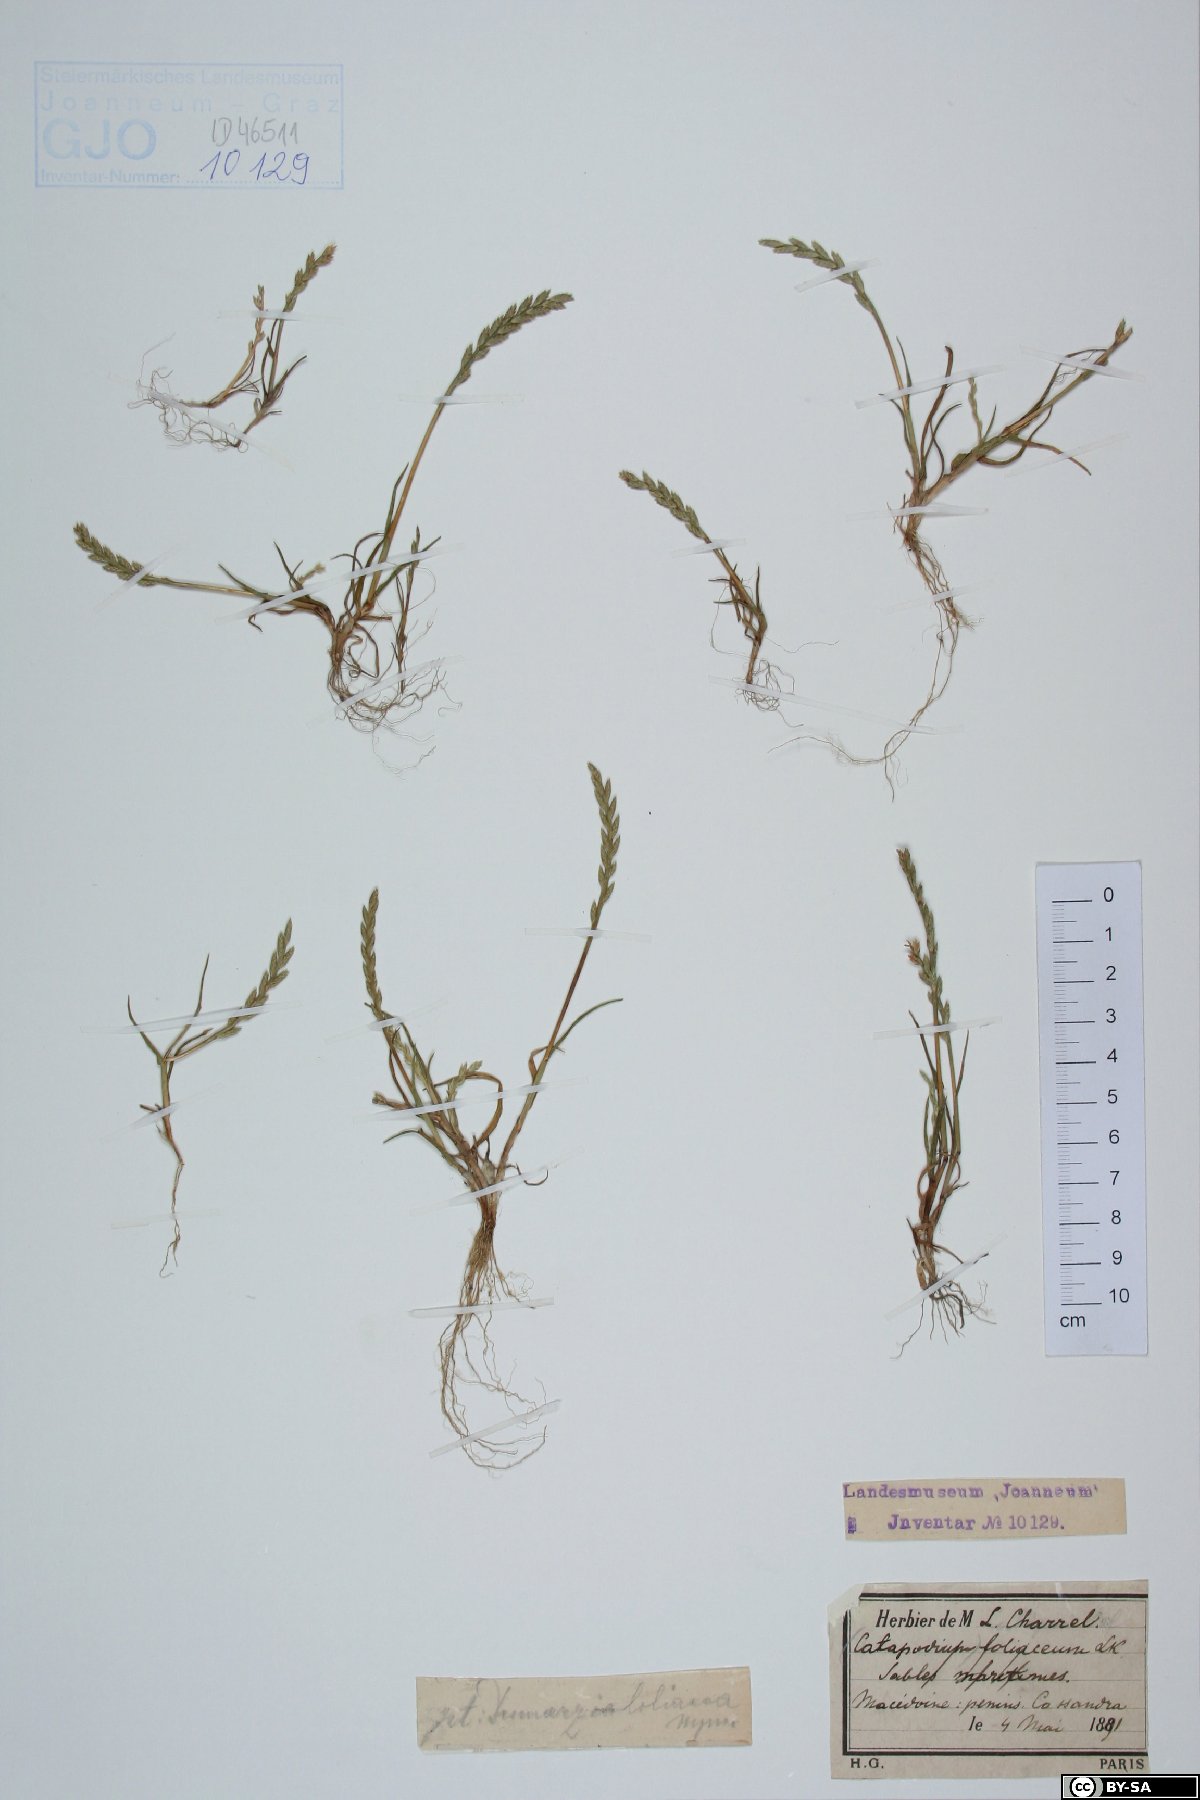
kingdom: Plantae
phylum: Tracheophyta
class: Liliopsida
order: Poales
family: Poaceae
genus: Catapodium
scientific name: Catapodium marinum
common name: Sea fern-grass
